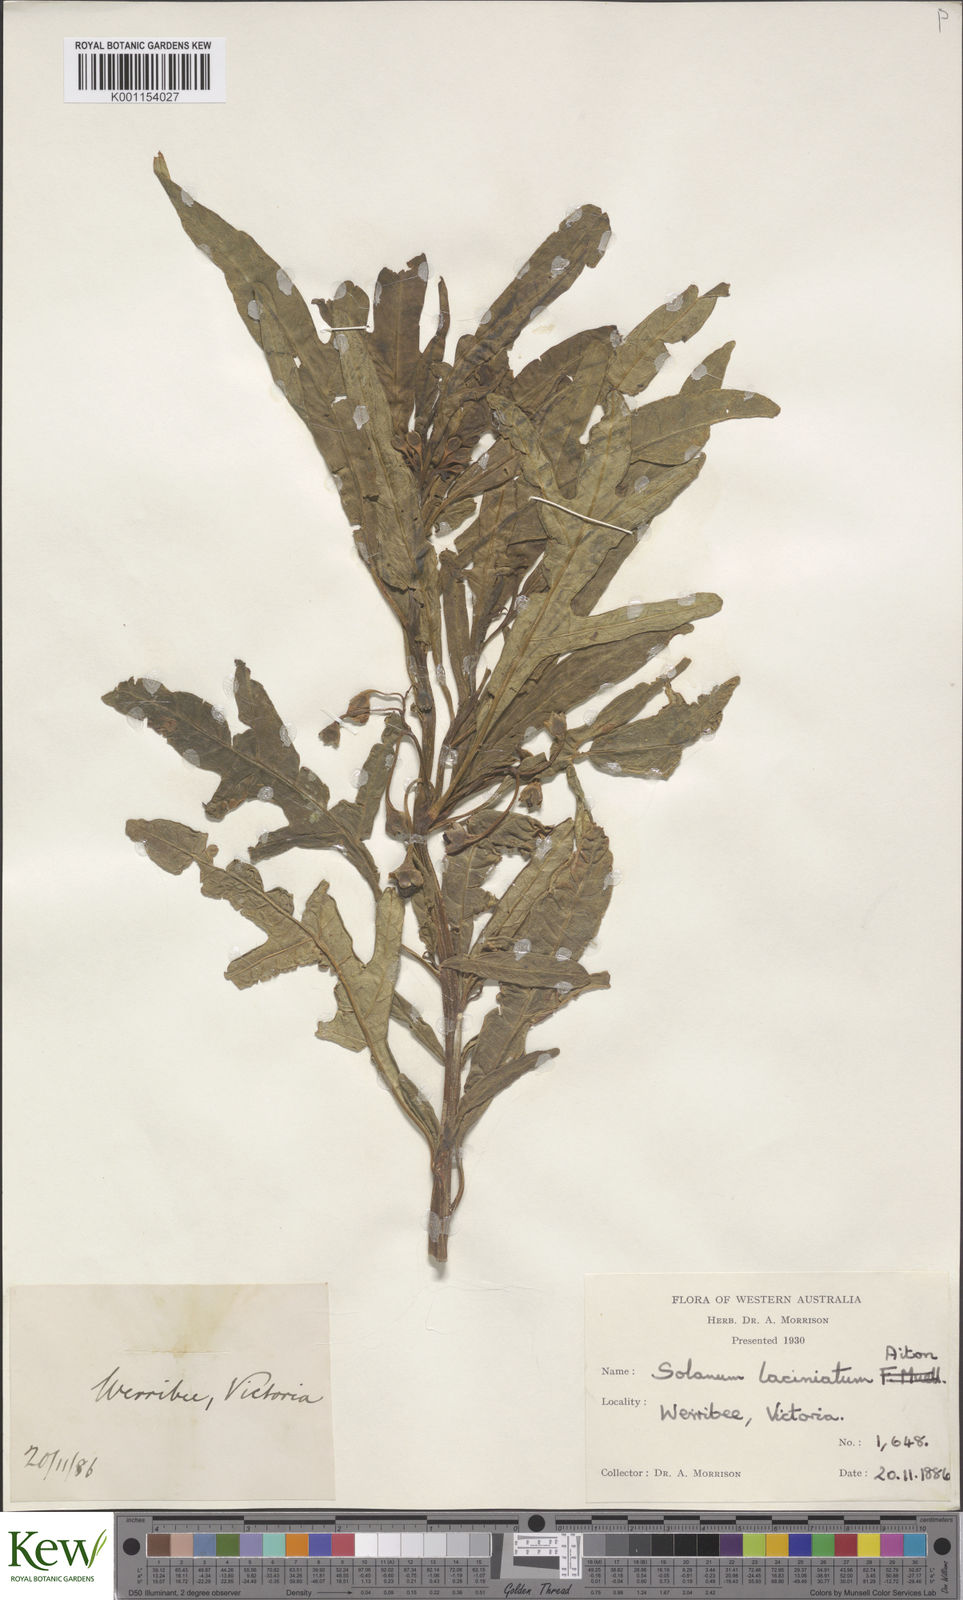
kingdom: Plantae
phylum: Tracheophyta
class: Magnoliopsida
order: Solanales
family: Solanaceae
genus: Solanum
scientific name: Solanum laciniatum
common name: Kangaroo-apple
